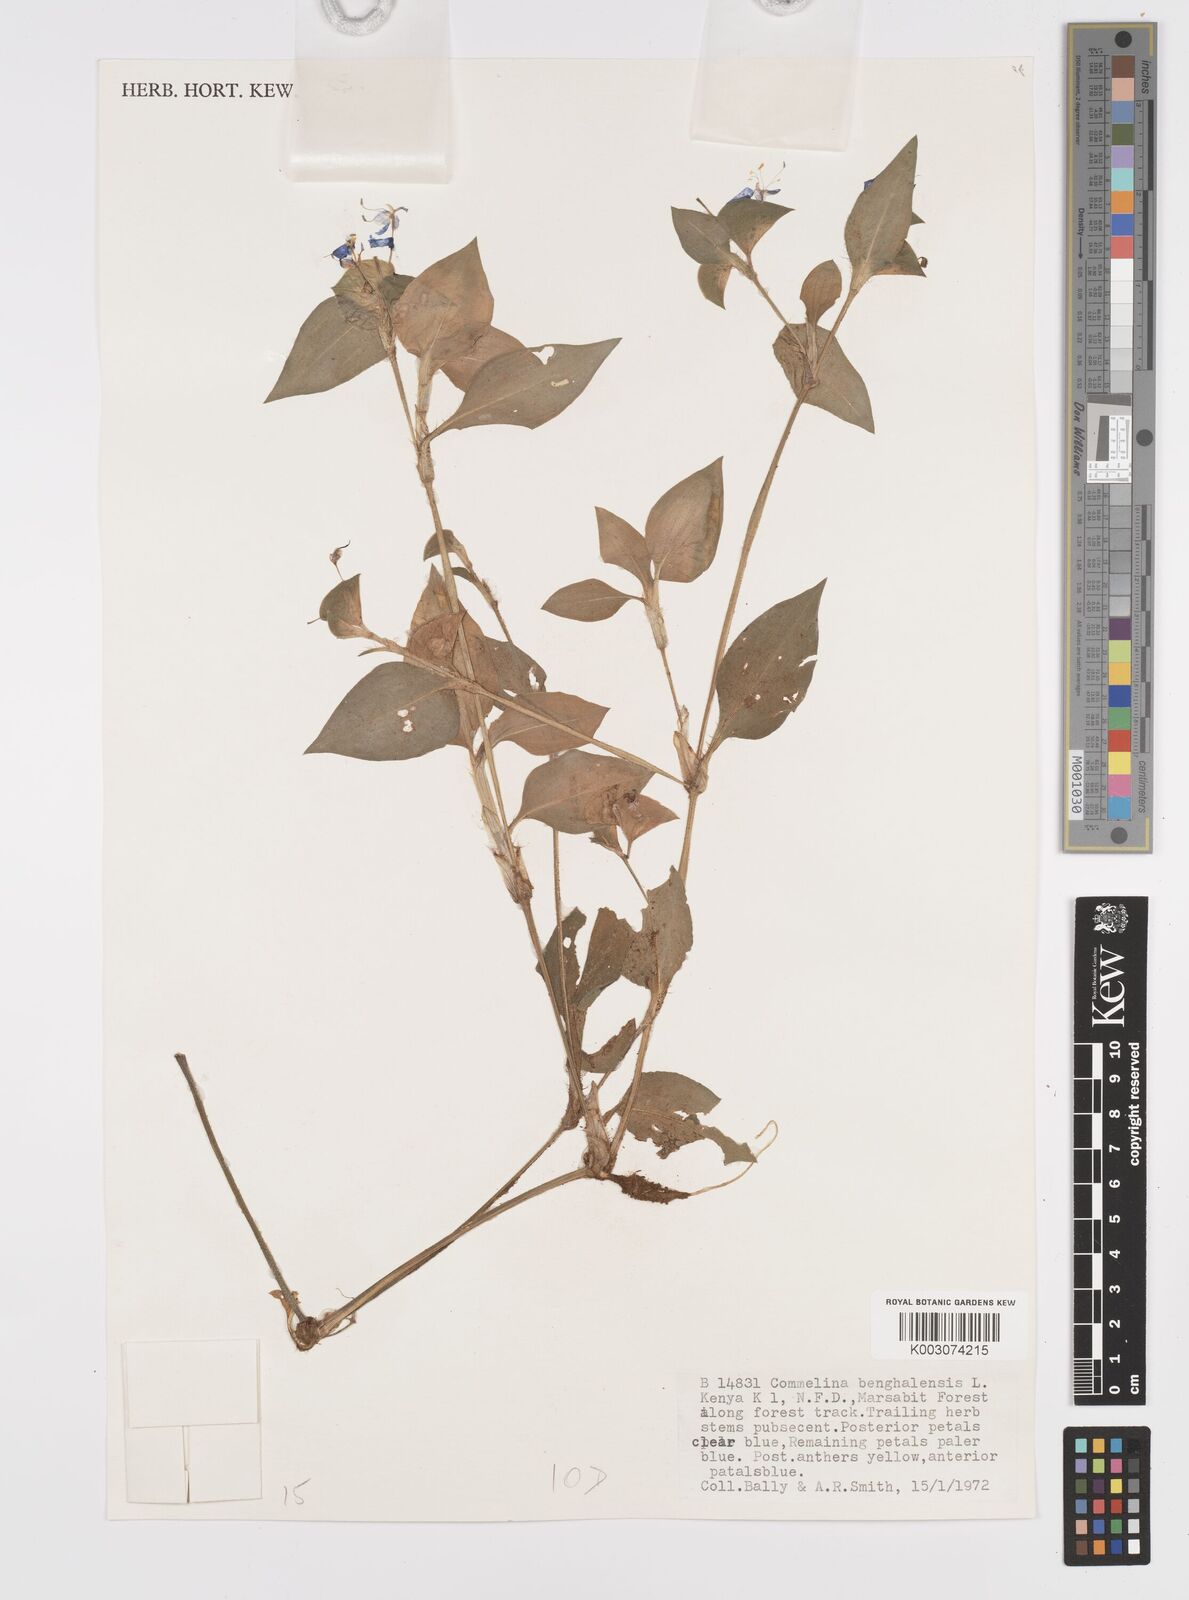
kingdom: Plantae
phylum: Tracheophyta
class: Liliopsida
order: Commelinales
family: Commelinaceae
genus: Commelina
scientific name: Commelina benghalensis
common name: Jio
